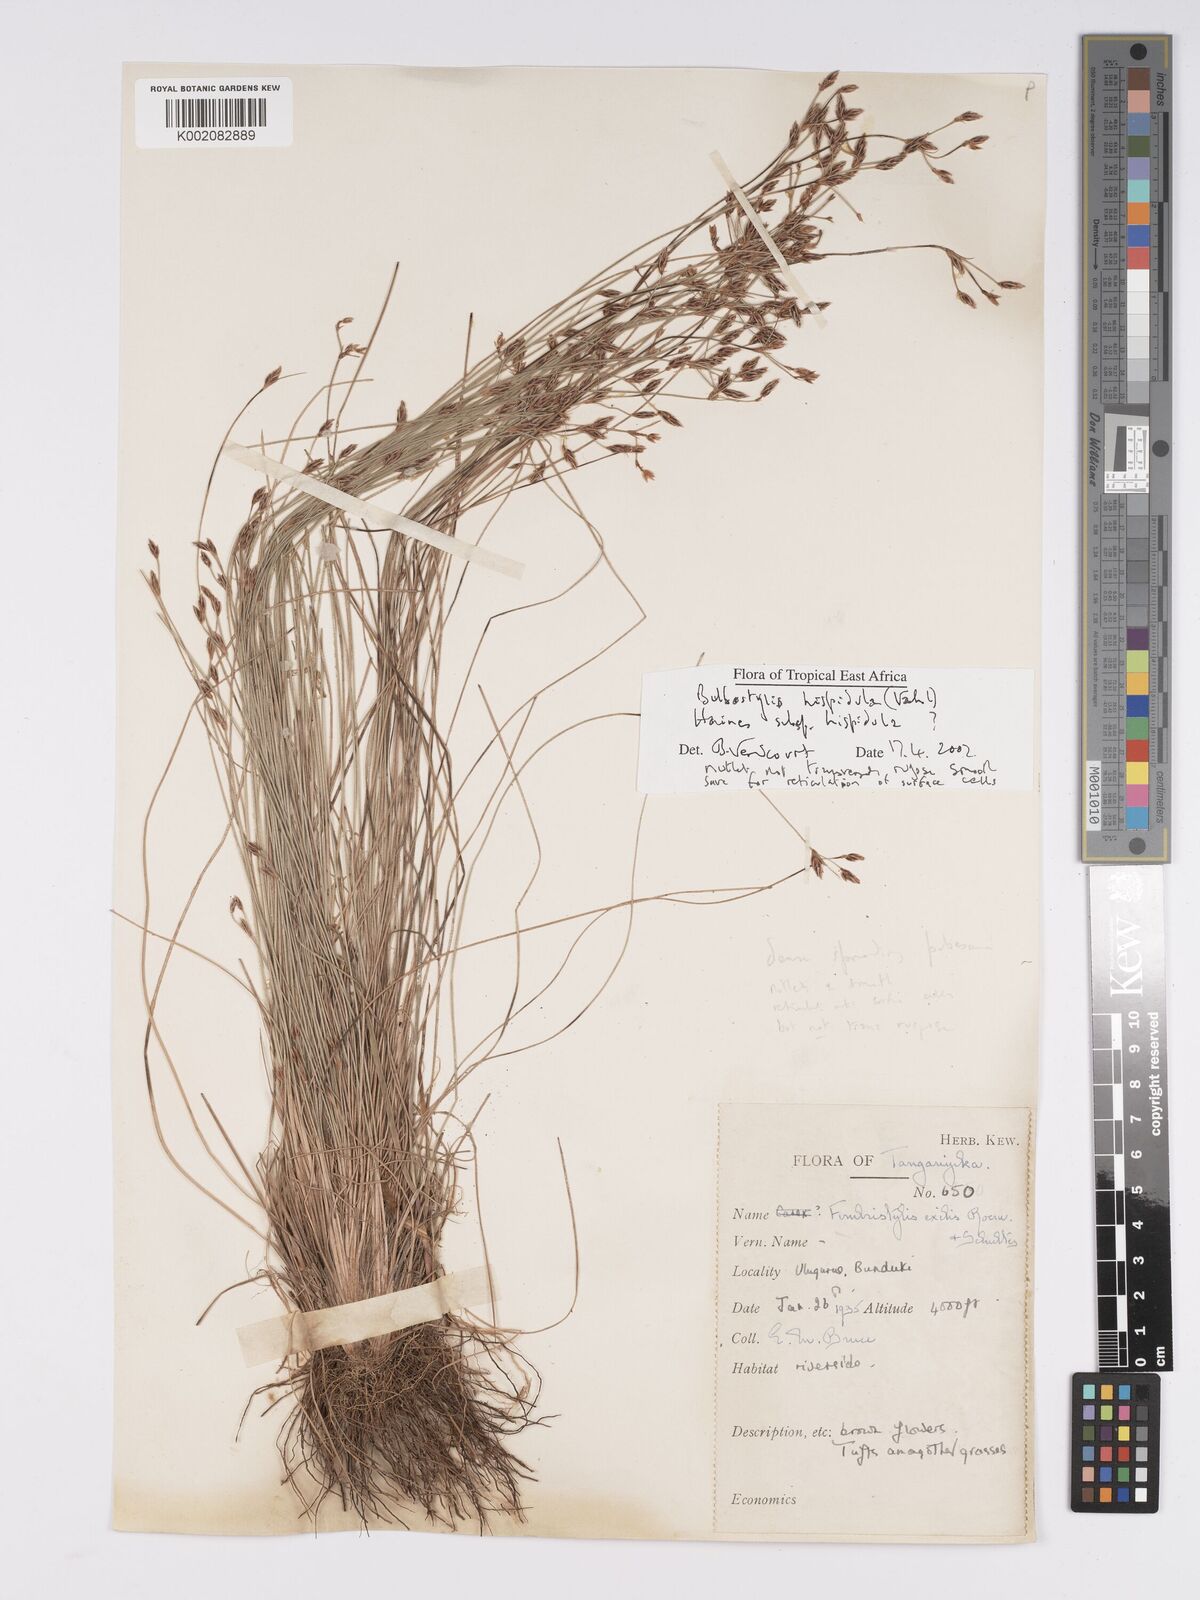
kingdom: Plantae
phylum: Tracheophyta
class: Liliopsida
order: Poales
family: Cyperaceae
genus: Bulbostylis
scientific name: Bulbostylis hispidula
